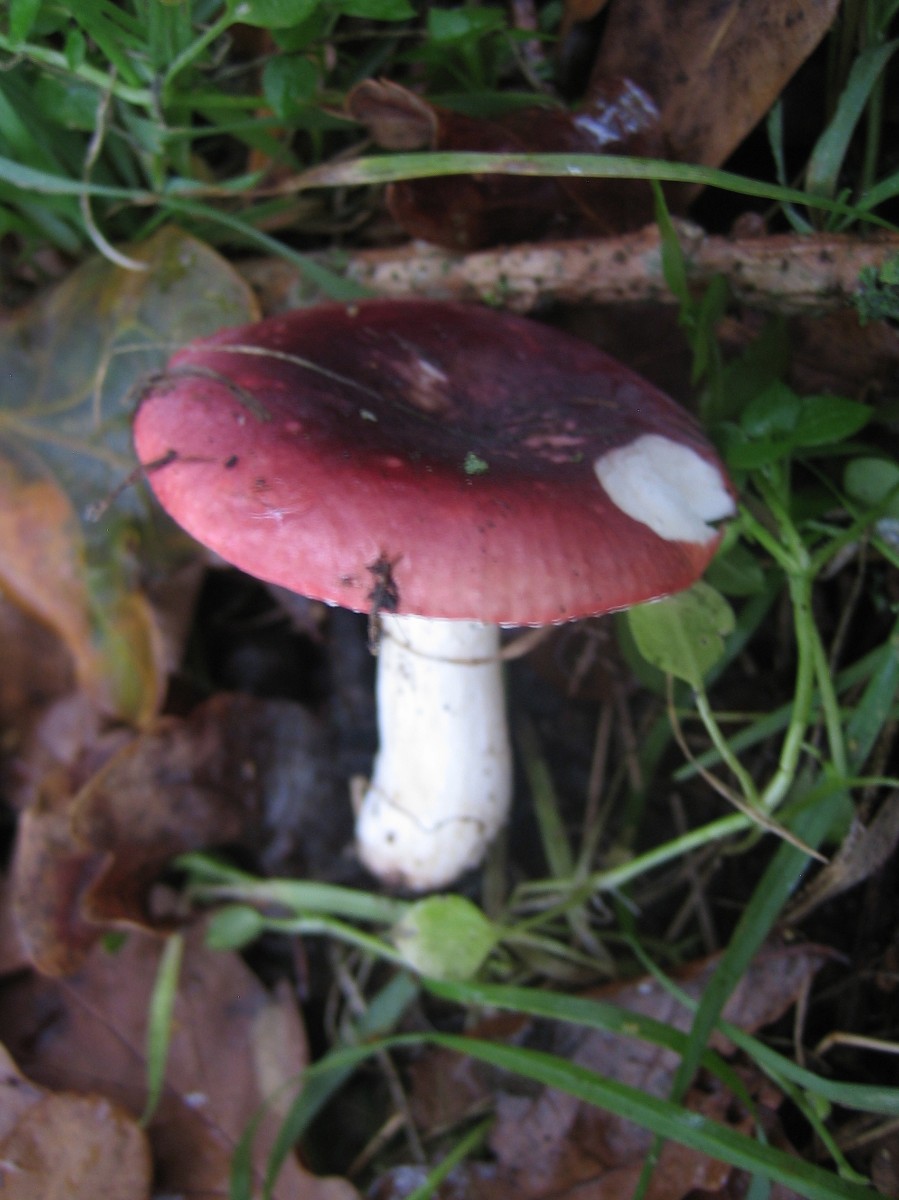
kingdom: Fungi
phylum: Basidiomycota
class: Agaricomycetes
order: Russulales
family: Russulaceae
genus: Russula
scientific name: Russula fragilis
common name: savbladet skørhat
